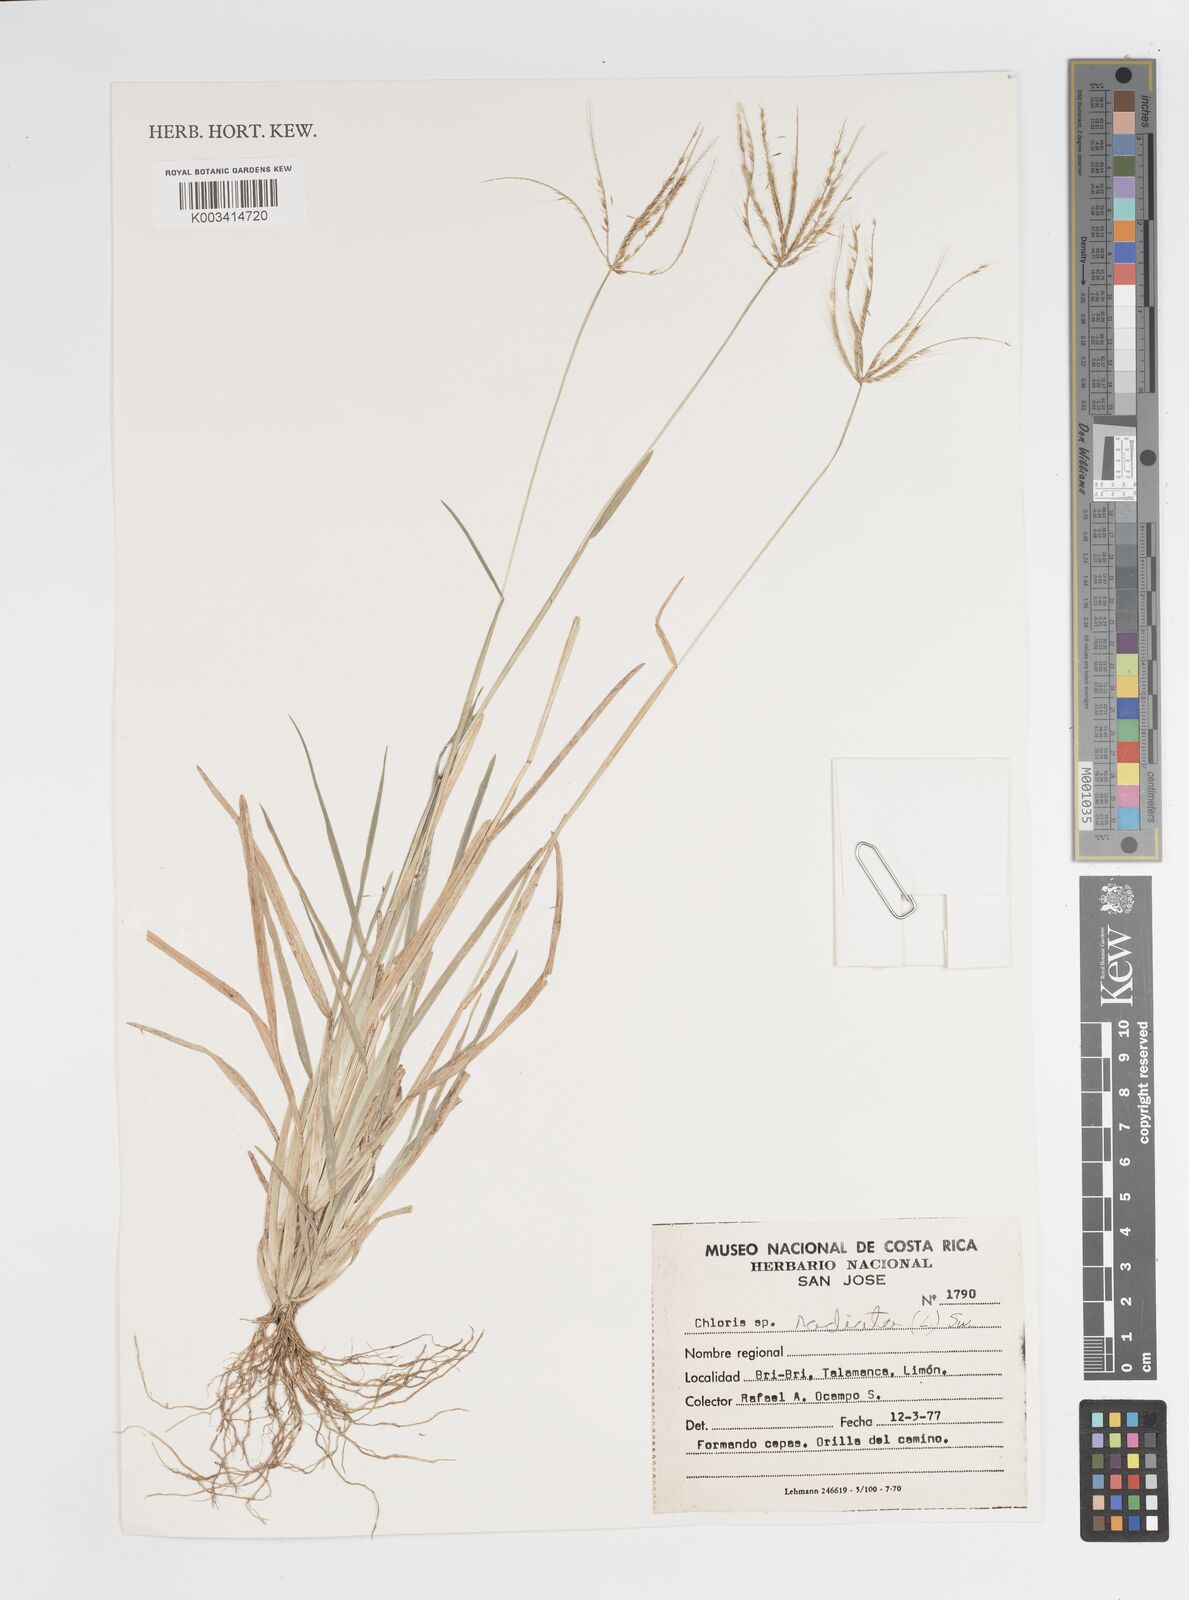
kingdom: Plantae
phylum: Tracheophyta
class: Liliopsida
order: Poales
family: Poaceae
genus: Chloris
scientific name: Chloris radiata
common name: Radiate fingergrass
